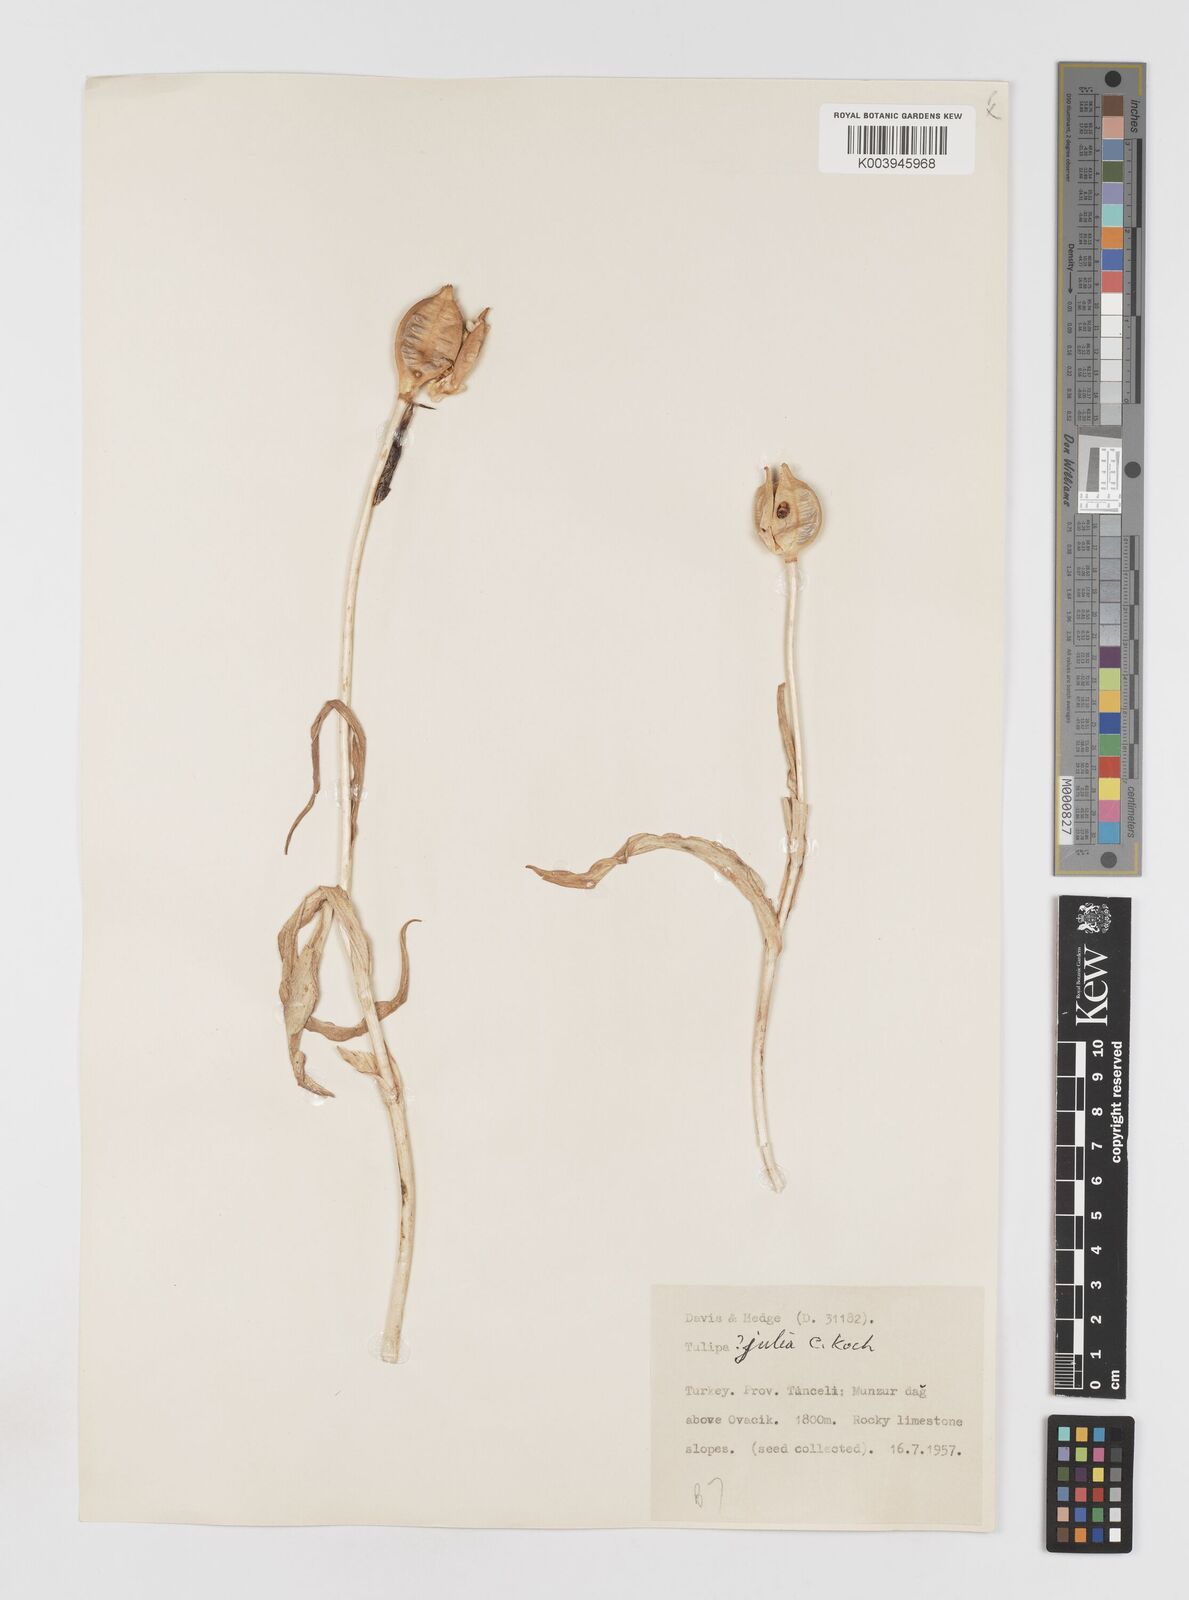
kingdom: Plantae
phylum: Tracheophyta
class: Liliopsida
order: Liliales
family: Liliaceae
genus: Tulipa
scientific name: Tulipa julia
